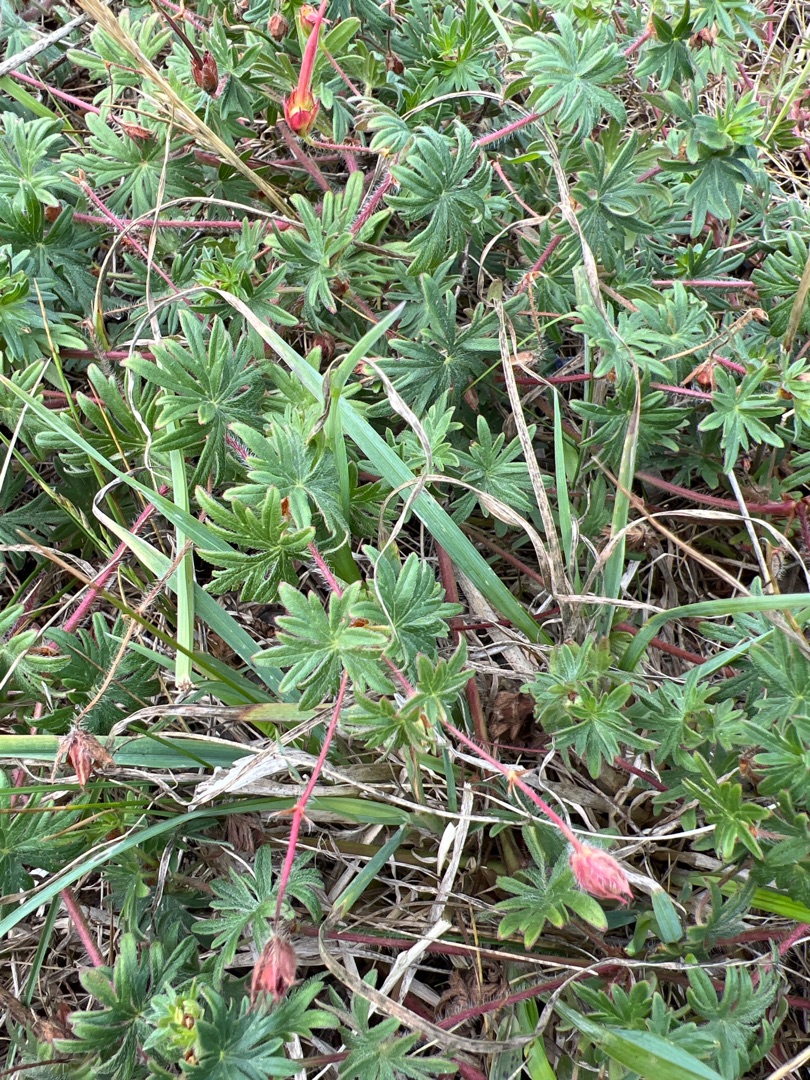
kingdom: Plantae
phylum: Tracheophyta
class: Magnoliopsida
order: Geraniales
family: Geraniaceae
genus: Geranium
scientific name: Geranium sanguineum
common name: Blodrød storkenæb
